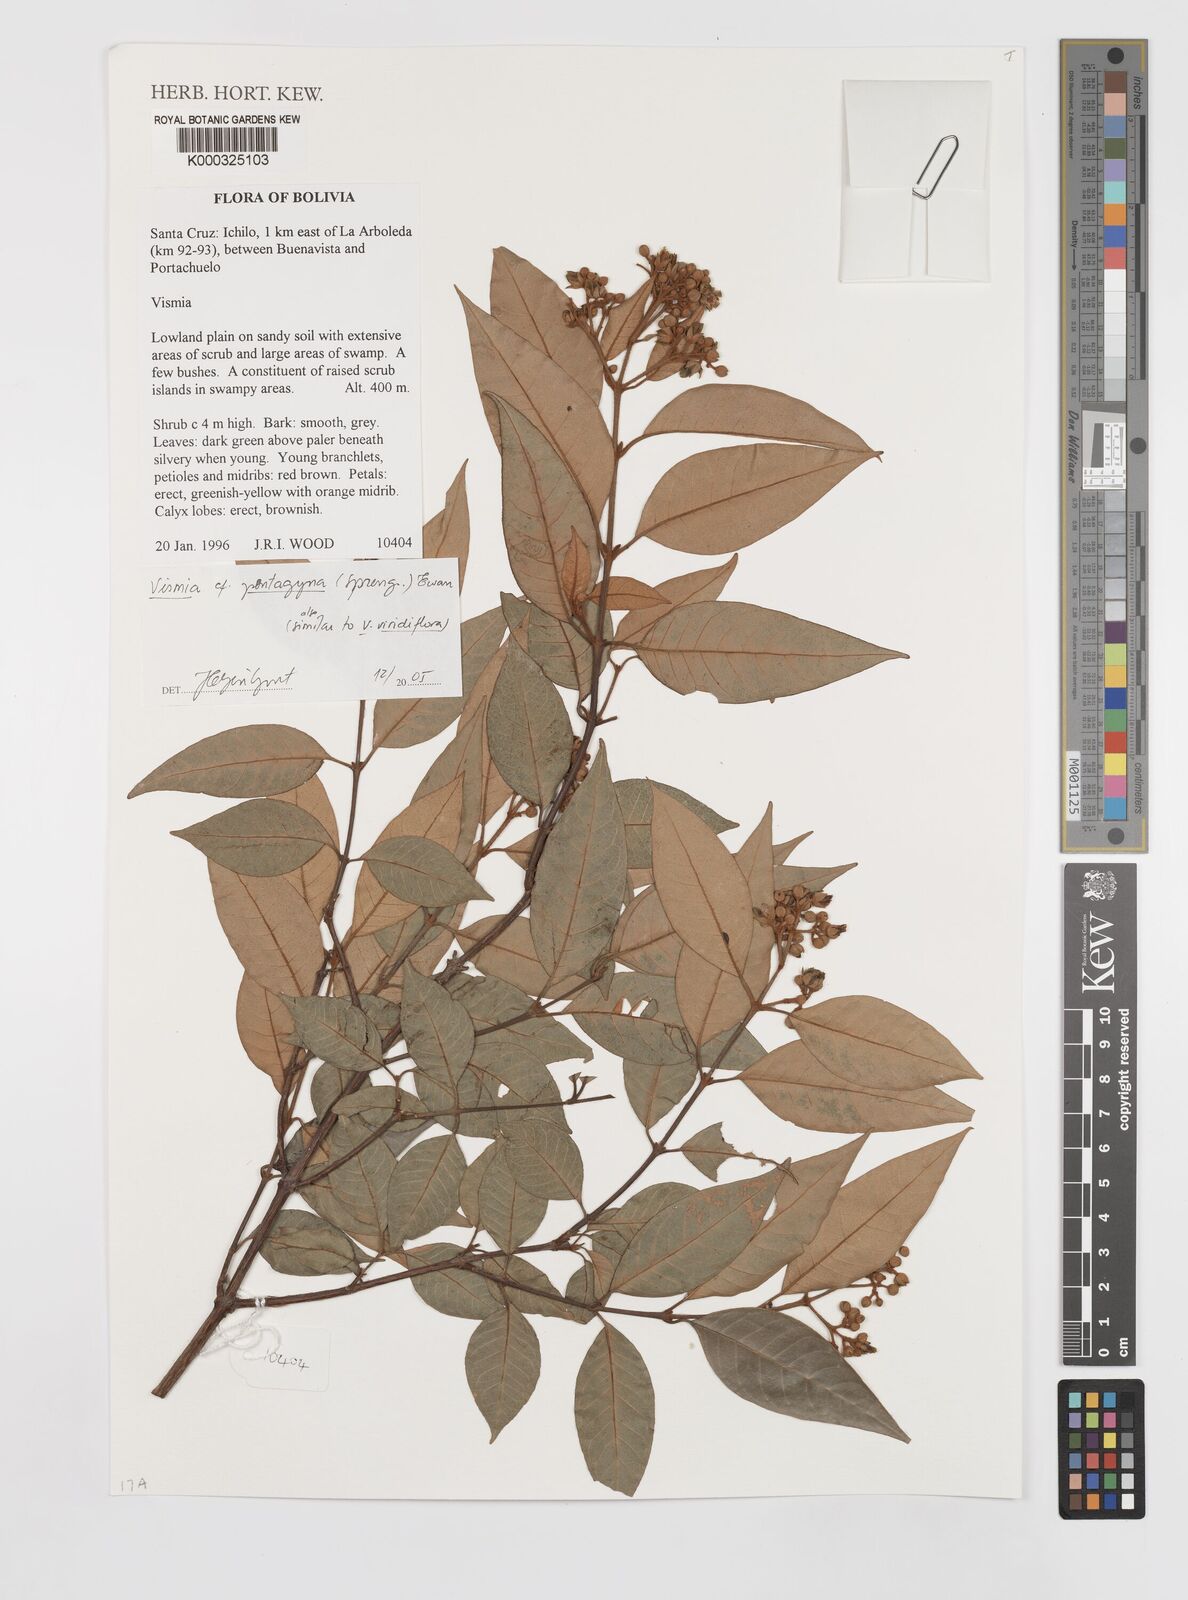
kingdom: Plantae
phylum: Tracheophyta
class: Magnoliopsida
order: Malpighiales
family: Hypericaceae
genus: Vismia
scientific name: Vismia pentagyna
